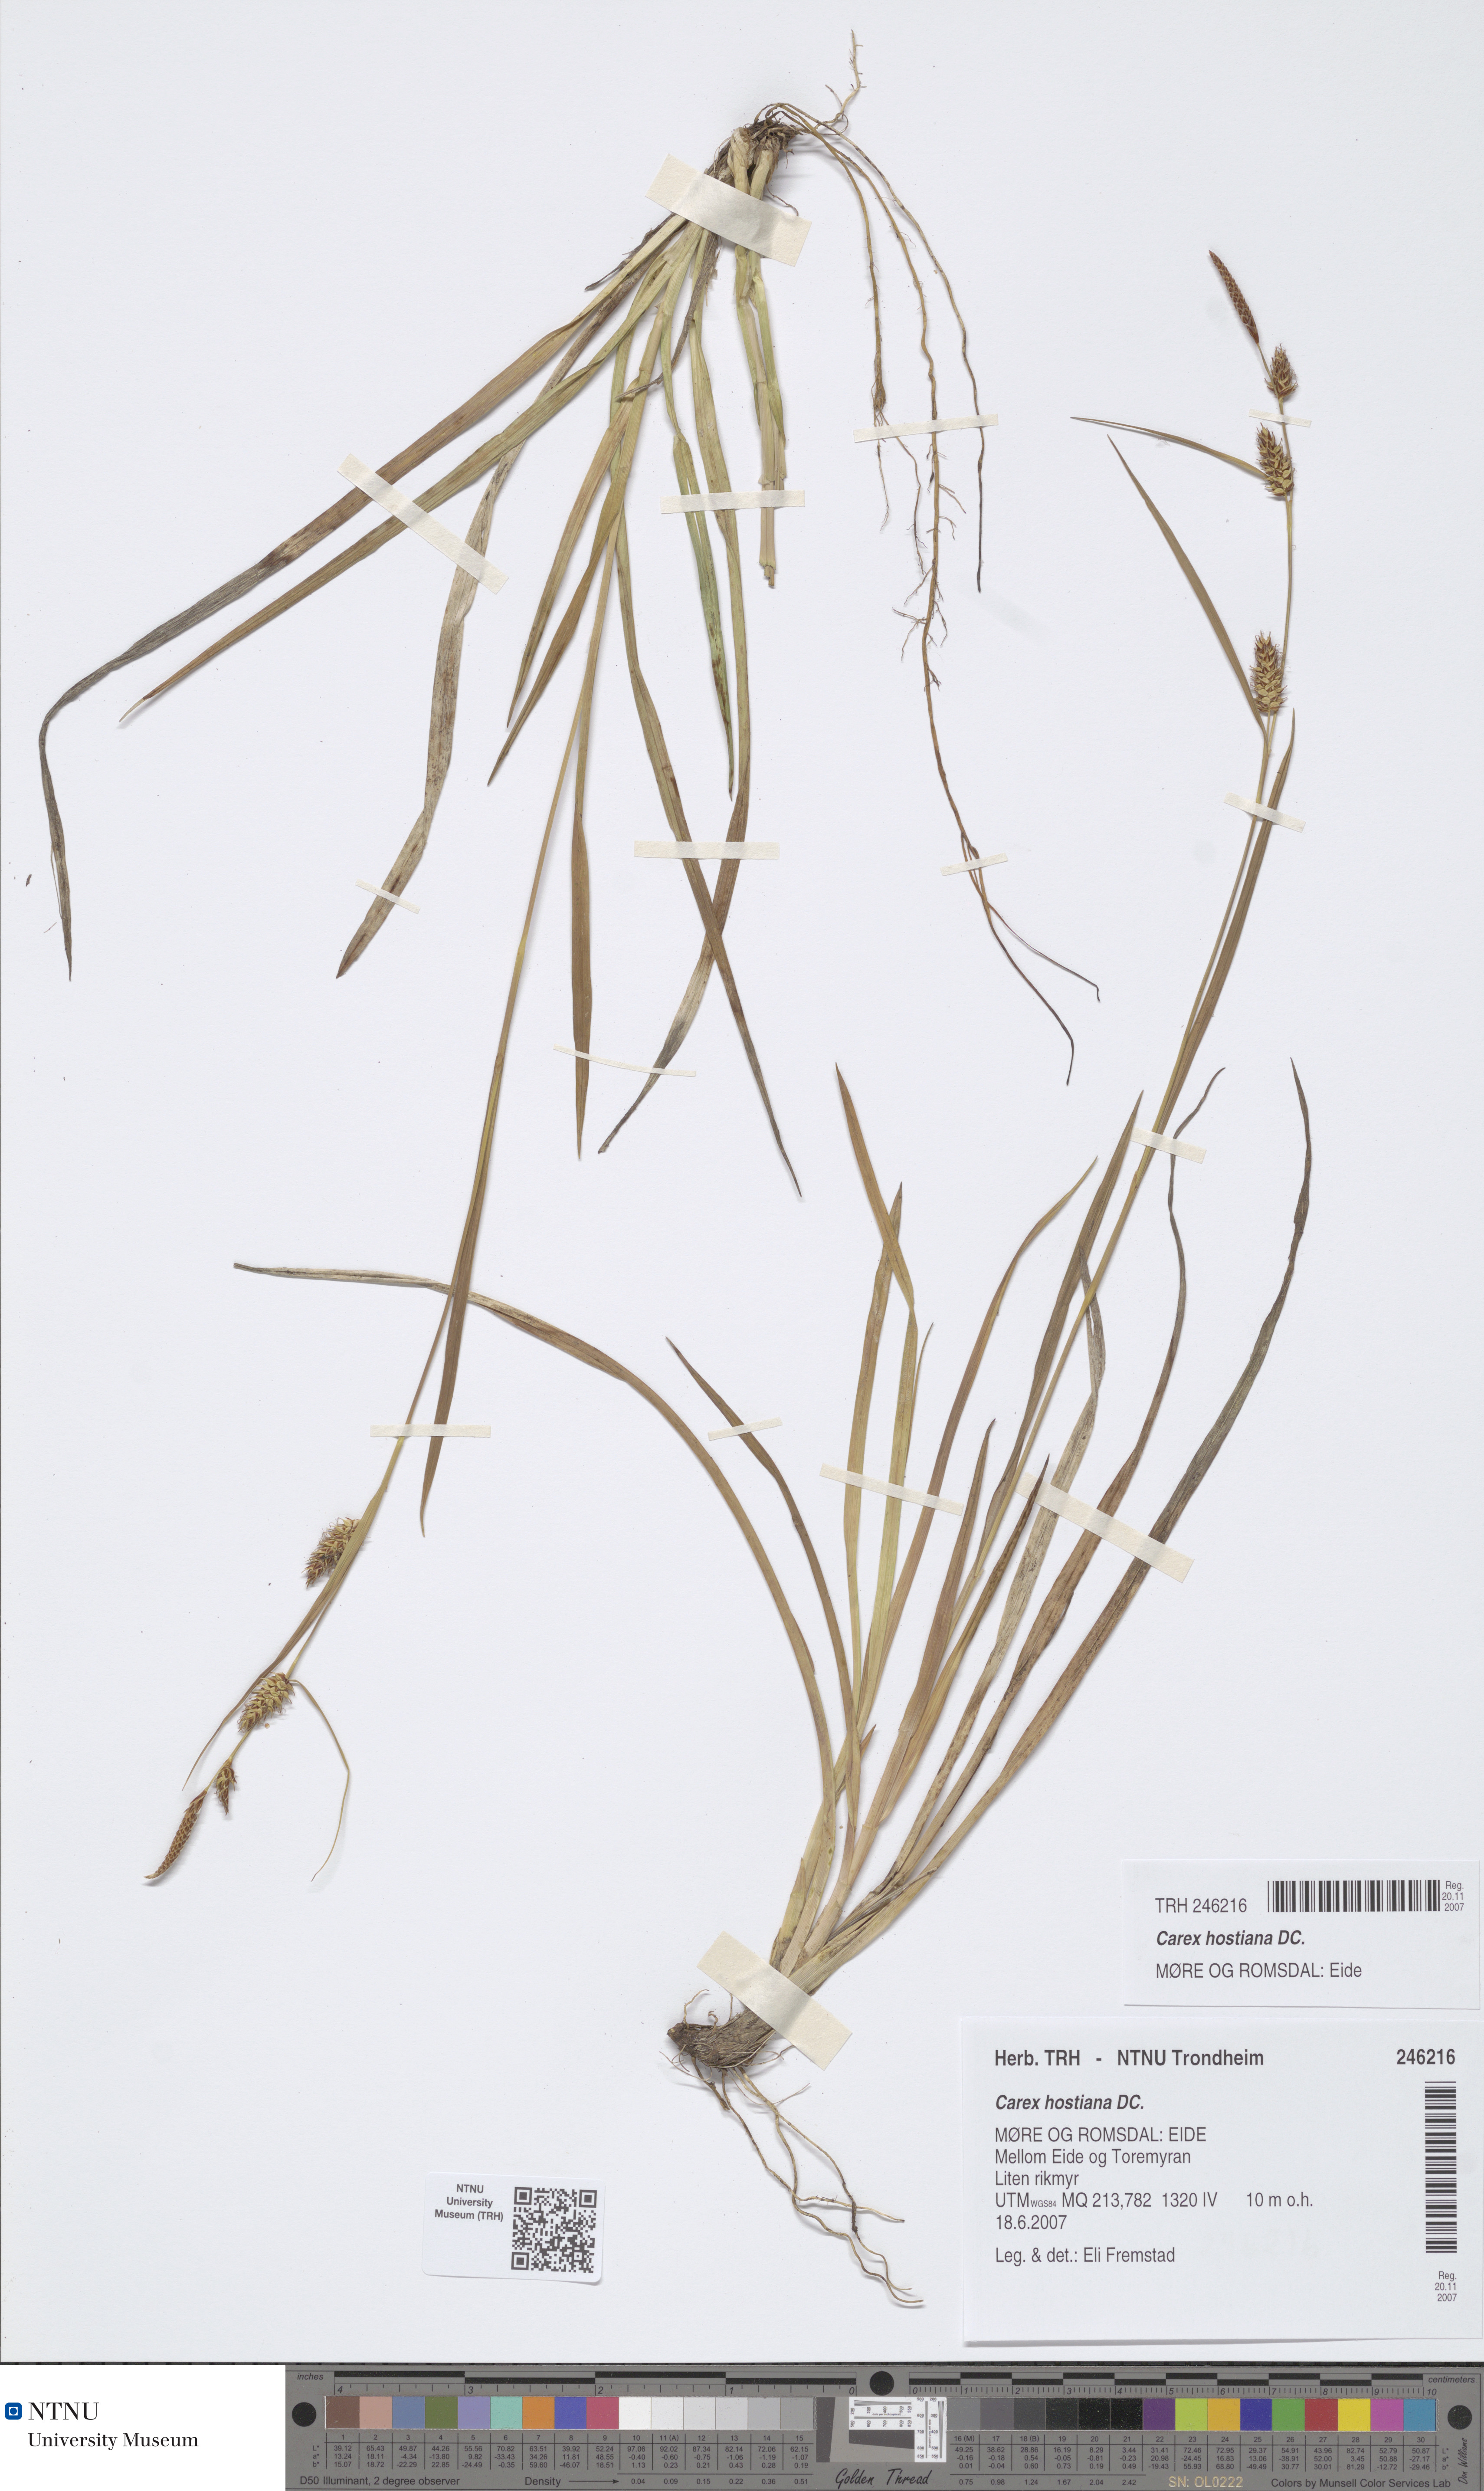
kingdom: Plantae
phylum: Tracheophyta
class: Liliopsida
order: Poales
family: Cyperaceae
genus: Carex
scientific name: Carex hostiana
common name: Tawny sedge
